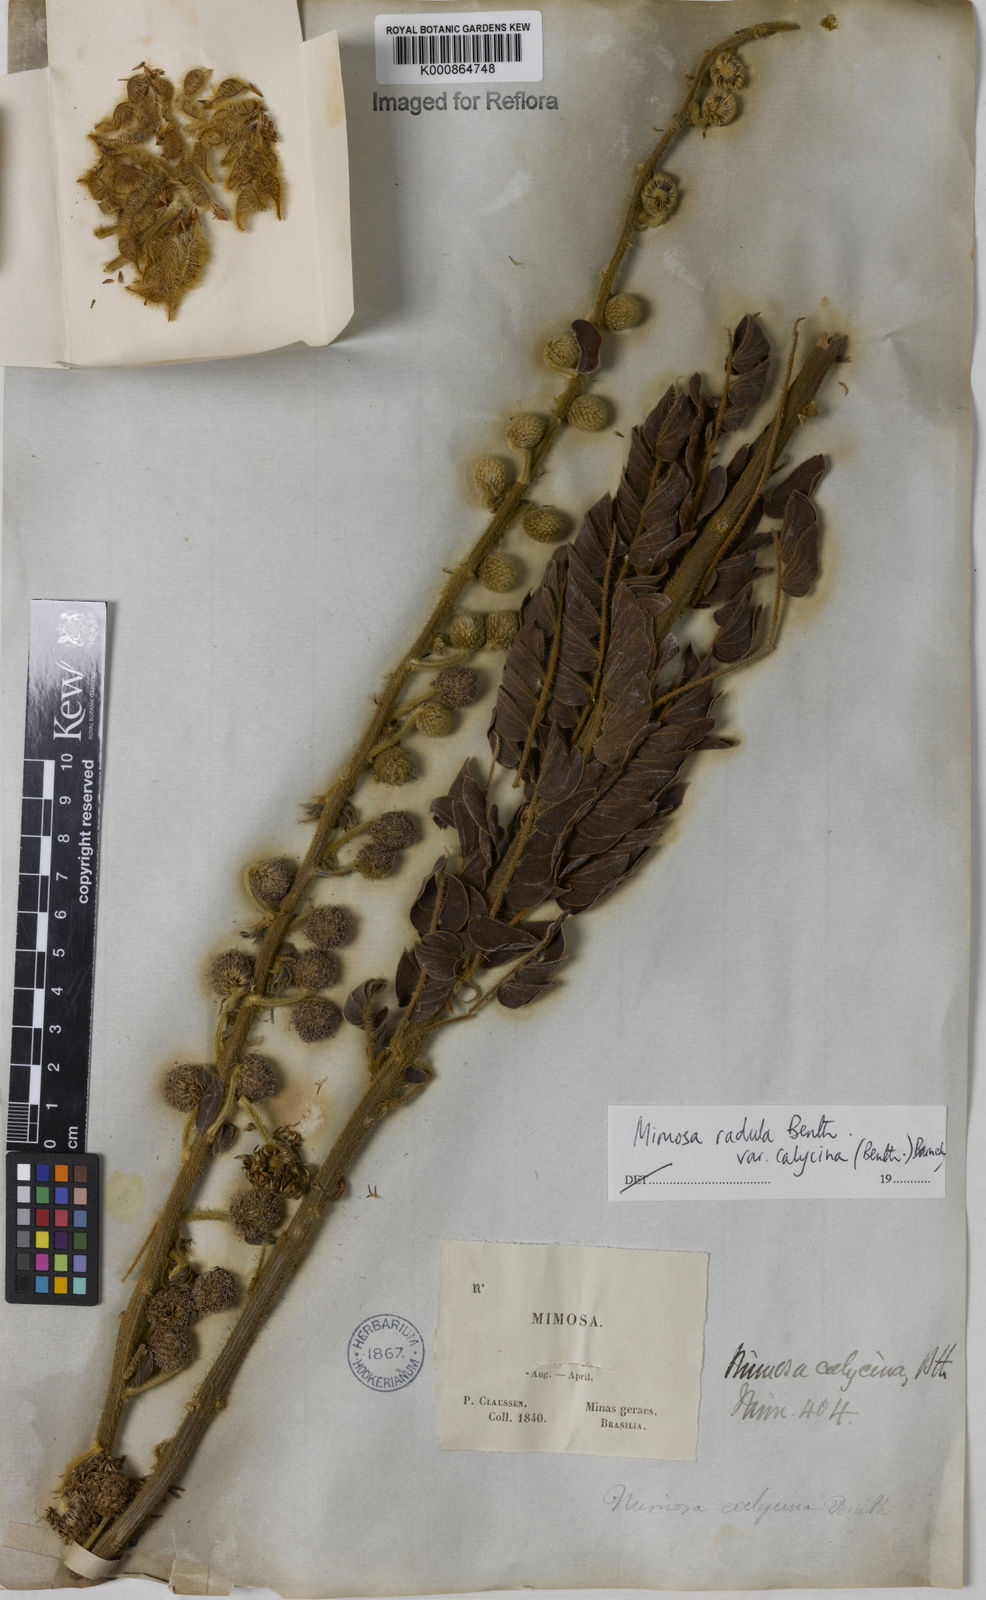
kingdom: Plantae
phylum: Tracheophyta
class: Magnoliopsida
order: Fabales
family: Fabaceae
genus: Mimosa
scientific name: Mimosa radula
